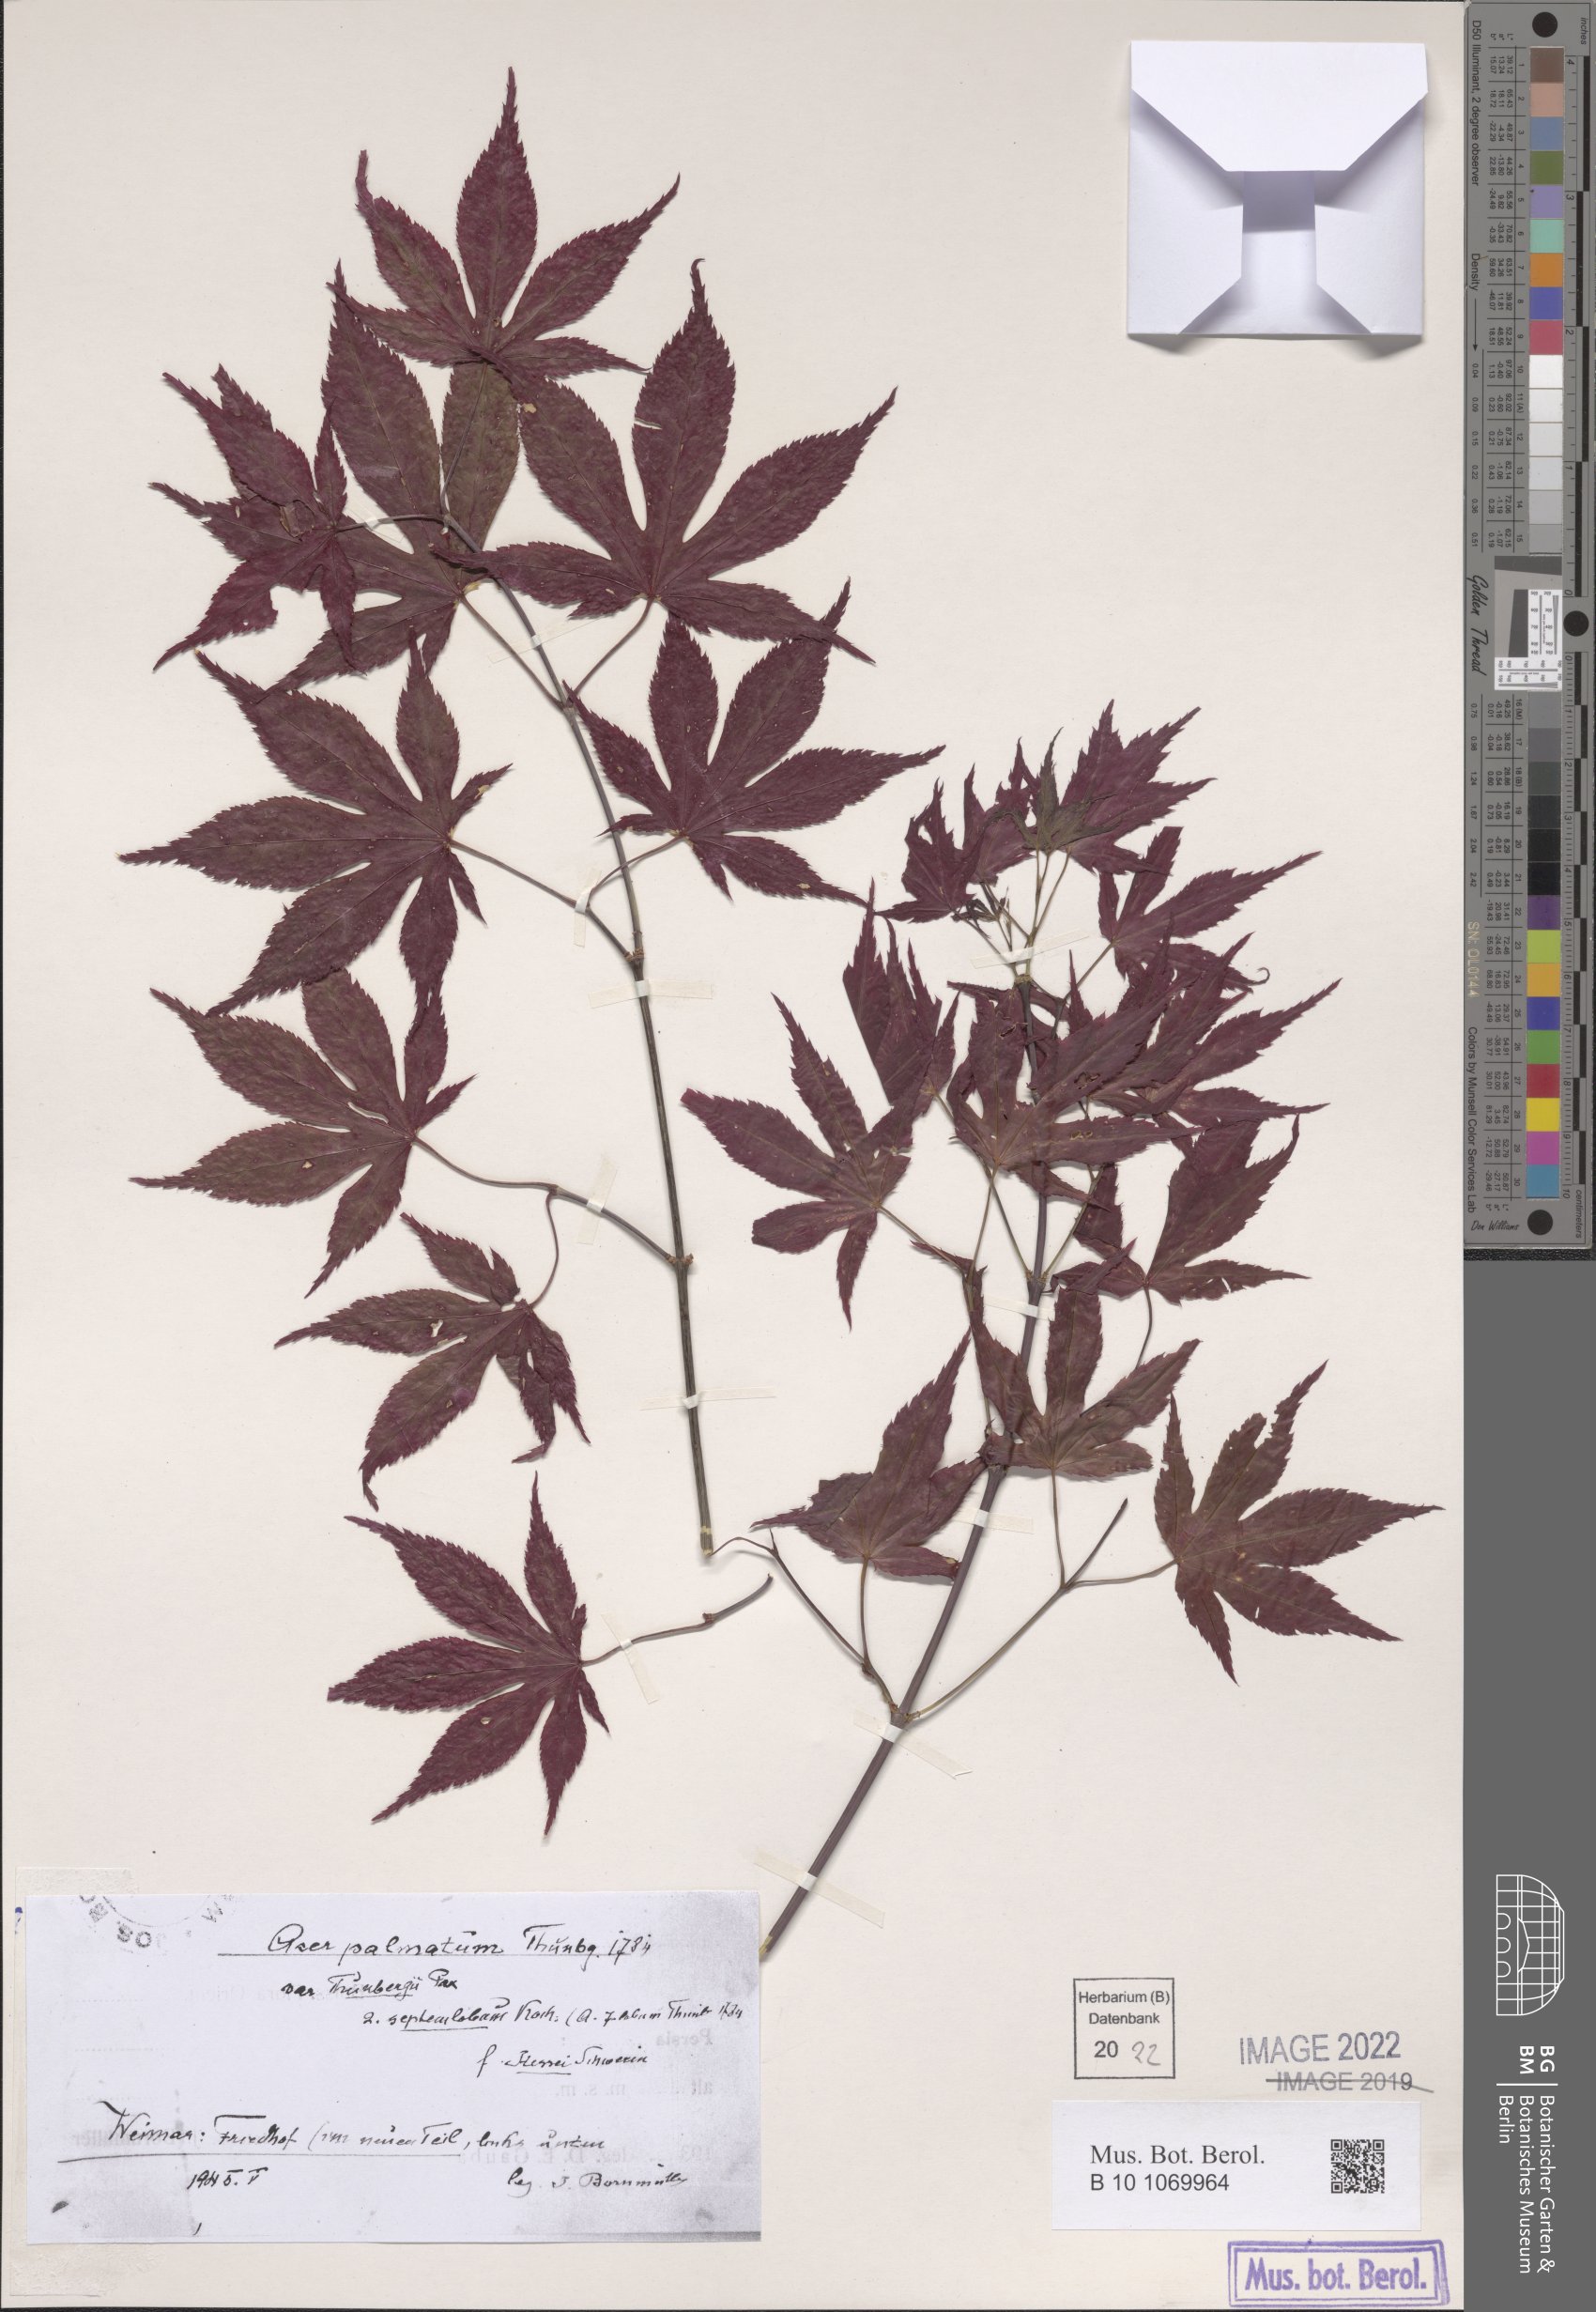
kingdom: Plantae
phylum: Tracheophyta
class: Magnoliopsida
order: Sapindales
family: Sapindaceae
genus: Acer
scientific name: Acer palmatum
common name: Japanese maple
